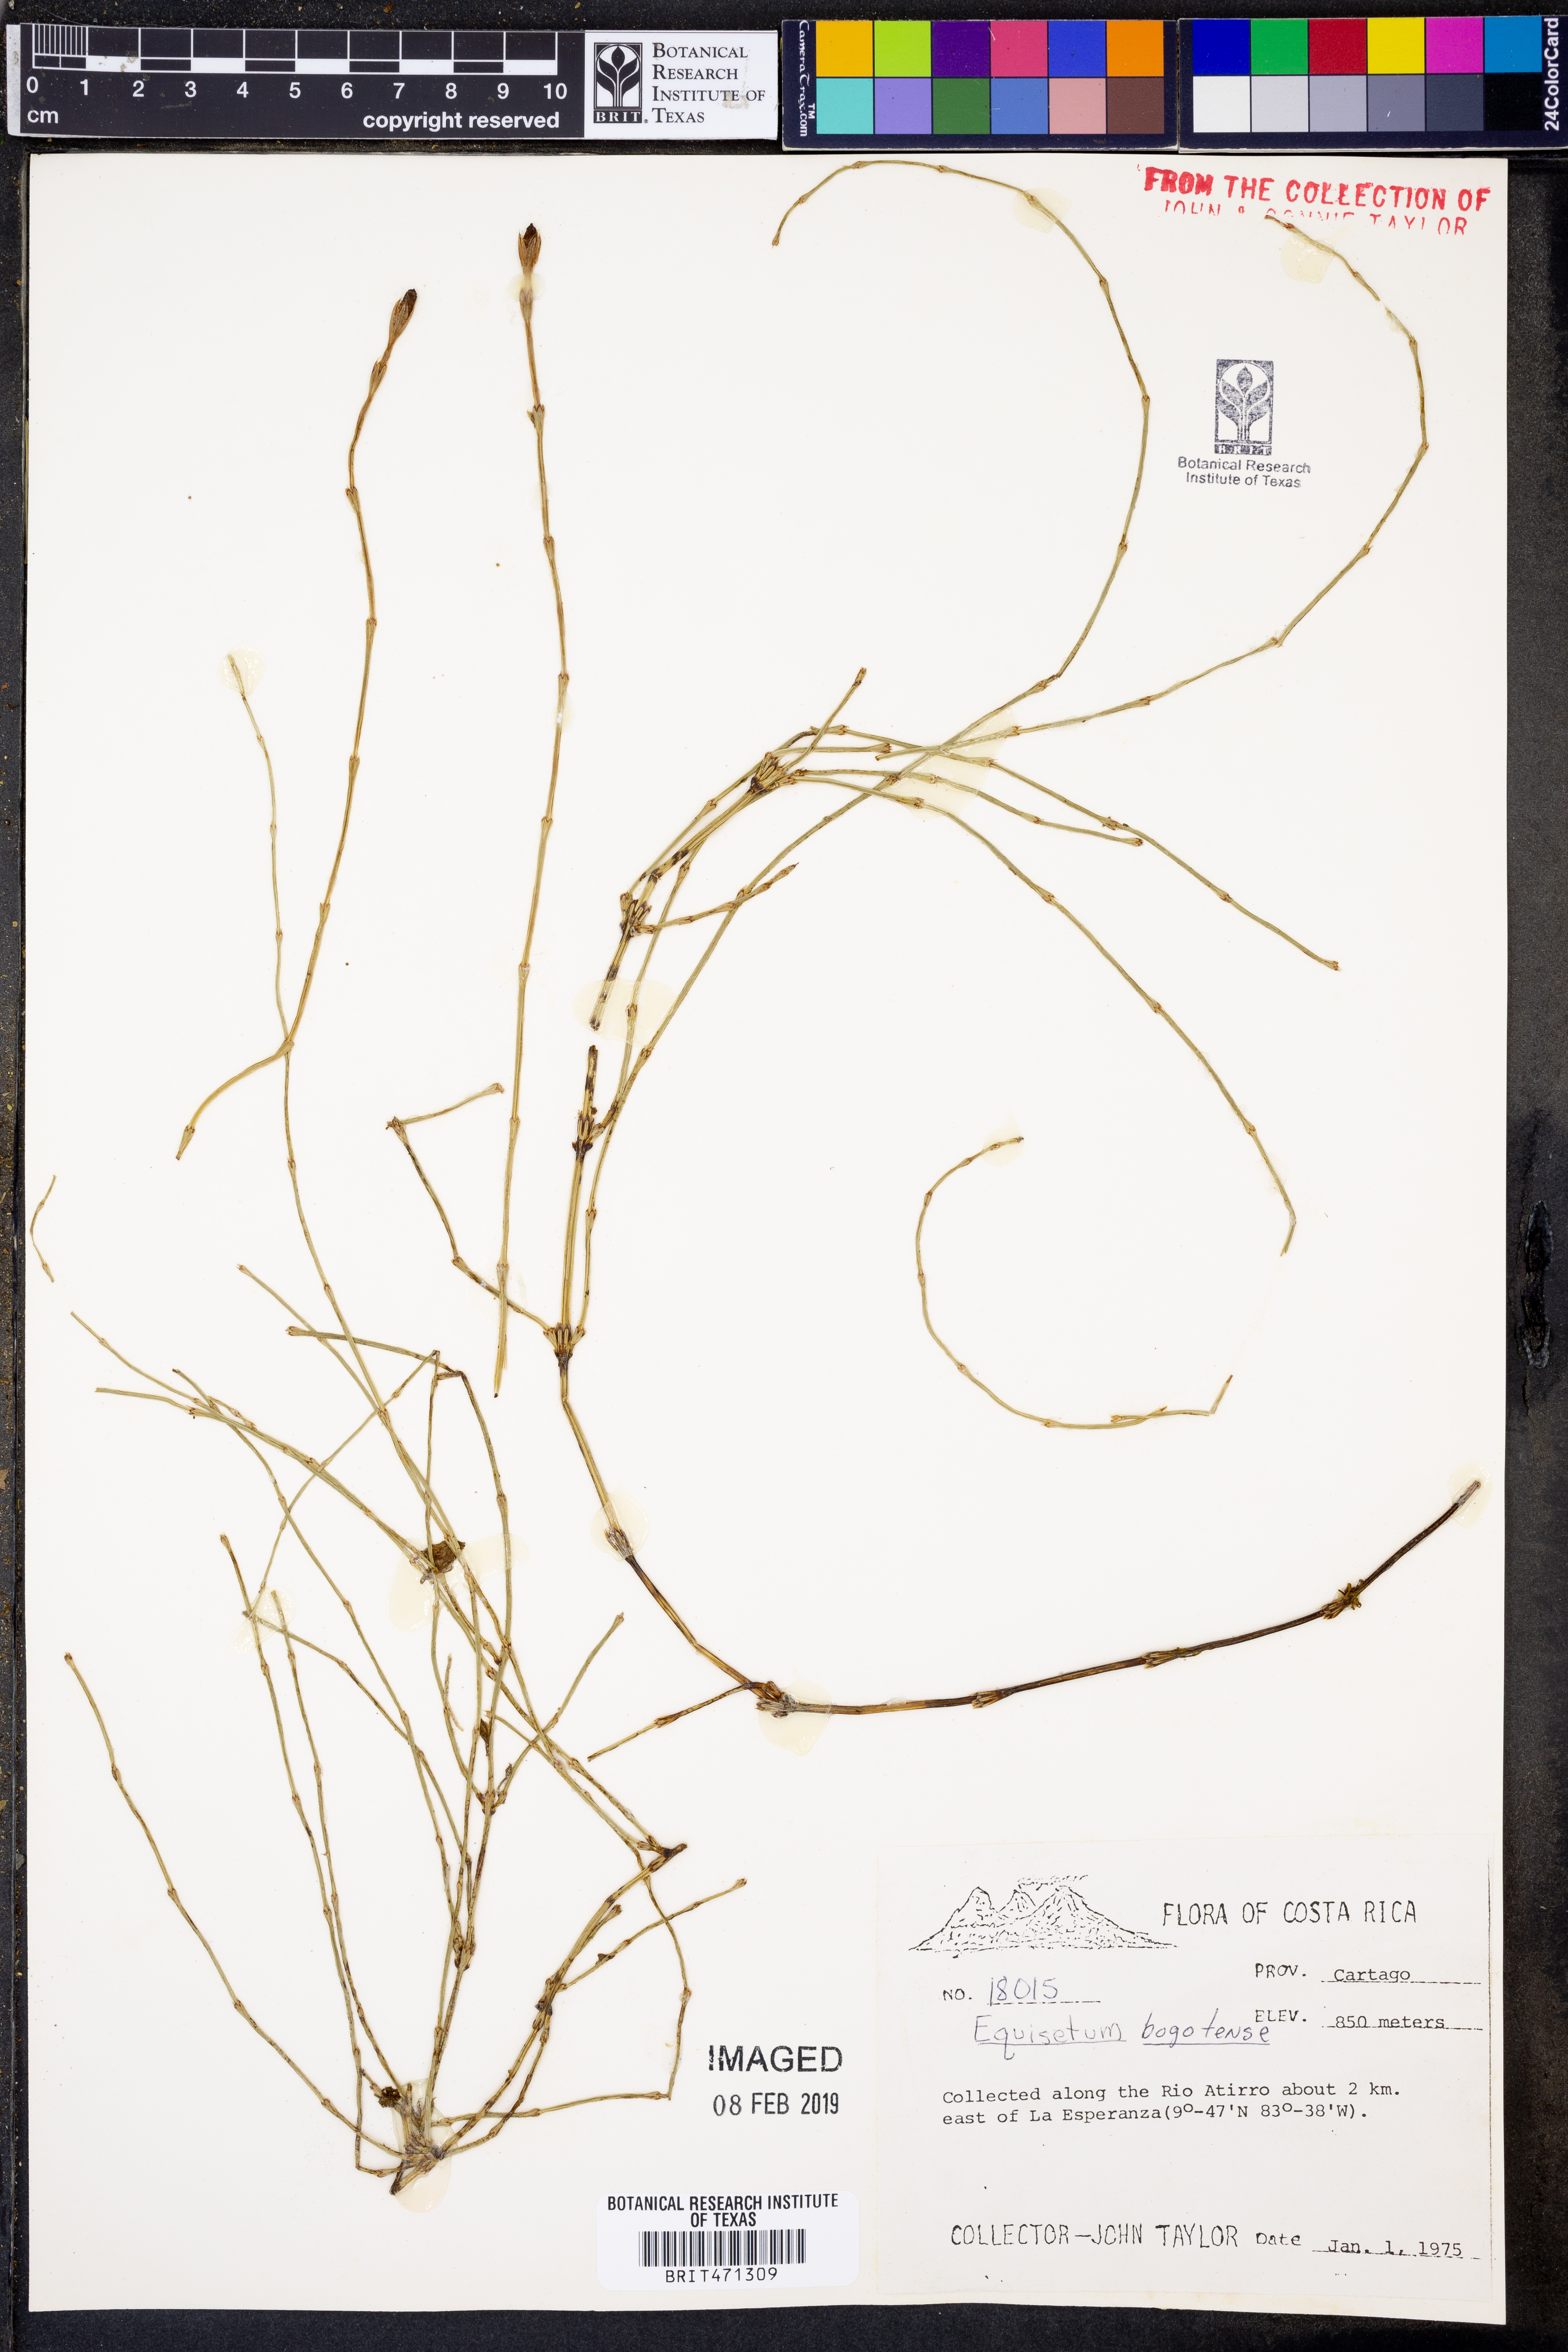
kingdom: Plantae
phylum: Tracheophyta
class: Polypodiopsida
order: Equisetales
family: Equisetaceae
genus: Equisetum
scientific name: Equisetum
